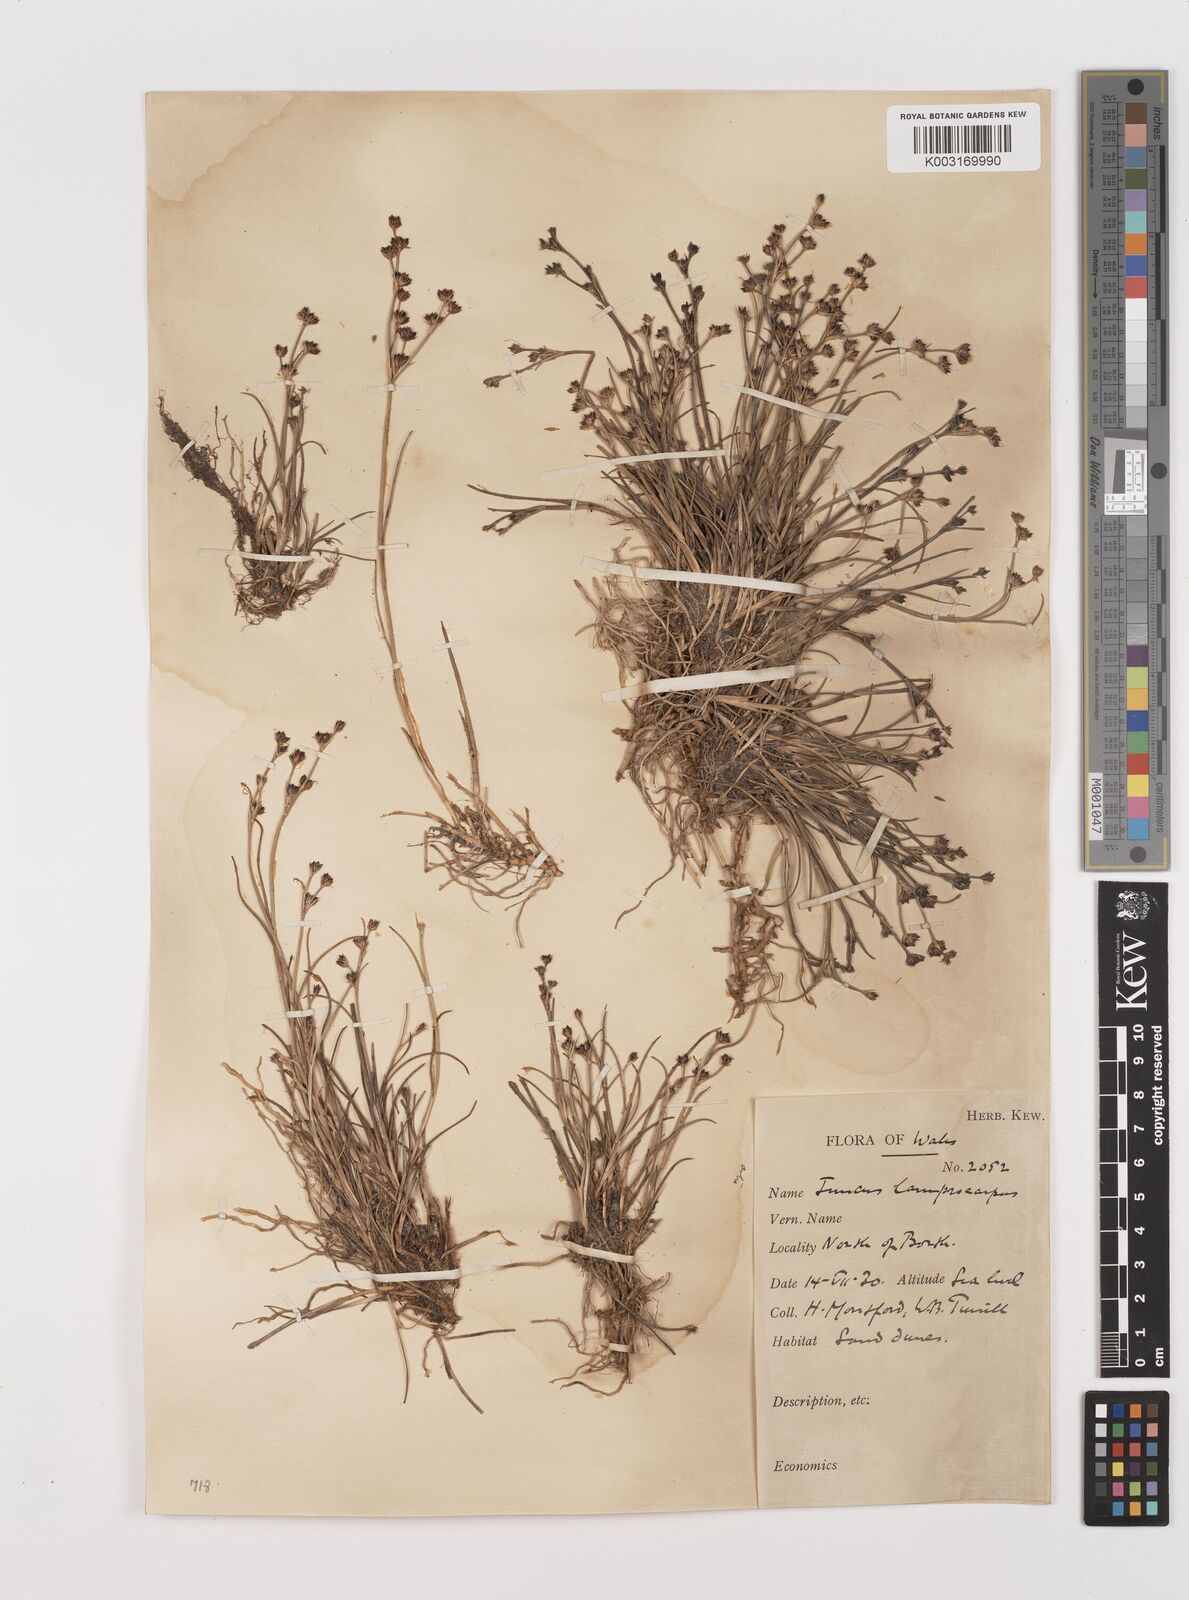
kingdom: Plantae
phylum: Tracheophyta
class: Liliopsida
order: Poales
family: Juncaceae
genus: Juncus
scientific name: Juncus articulatus
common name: Jointed rush
